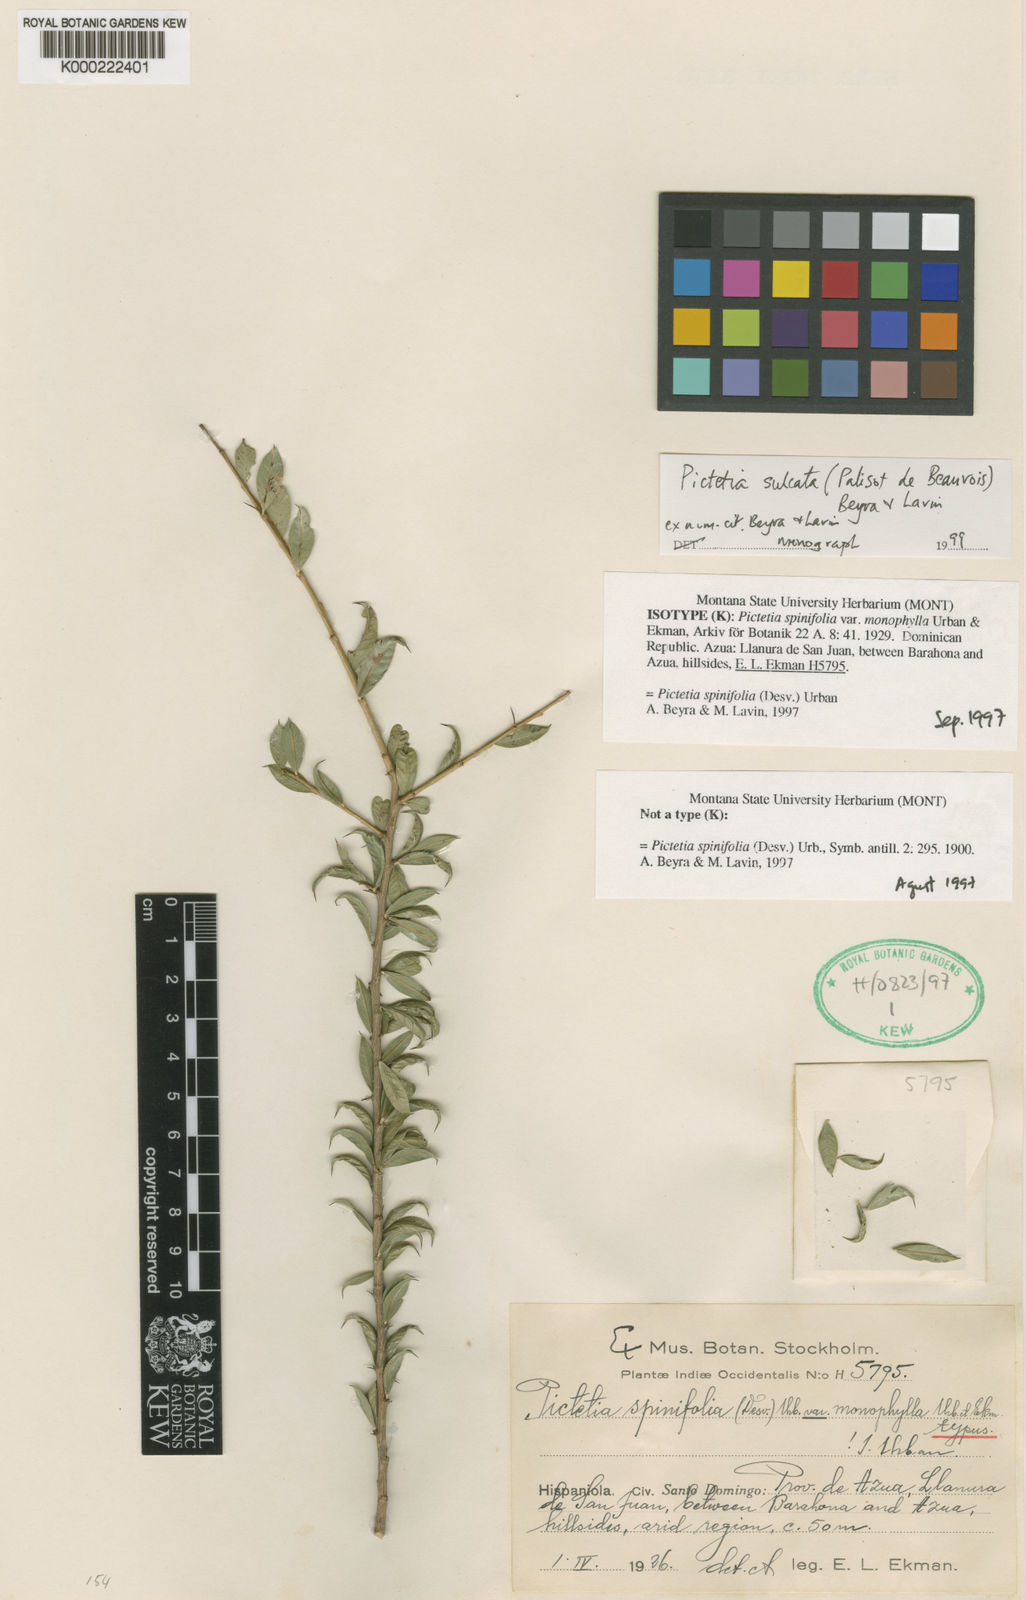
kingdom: Plantae
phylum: Tracheophyta
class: Magnoliopsida
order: Fabales
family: Fabaceae
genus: Pictetia
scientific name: Pictetia sulcata
